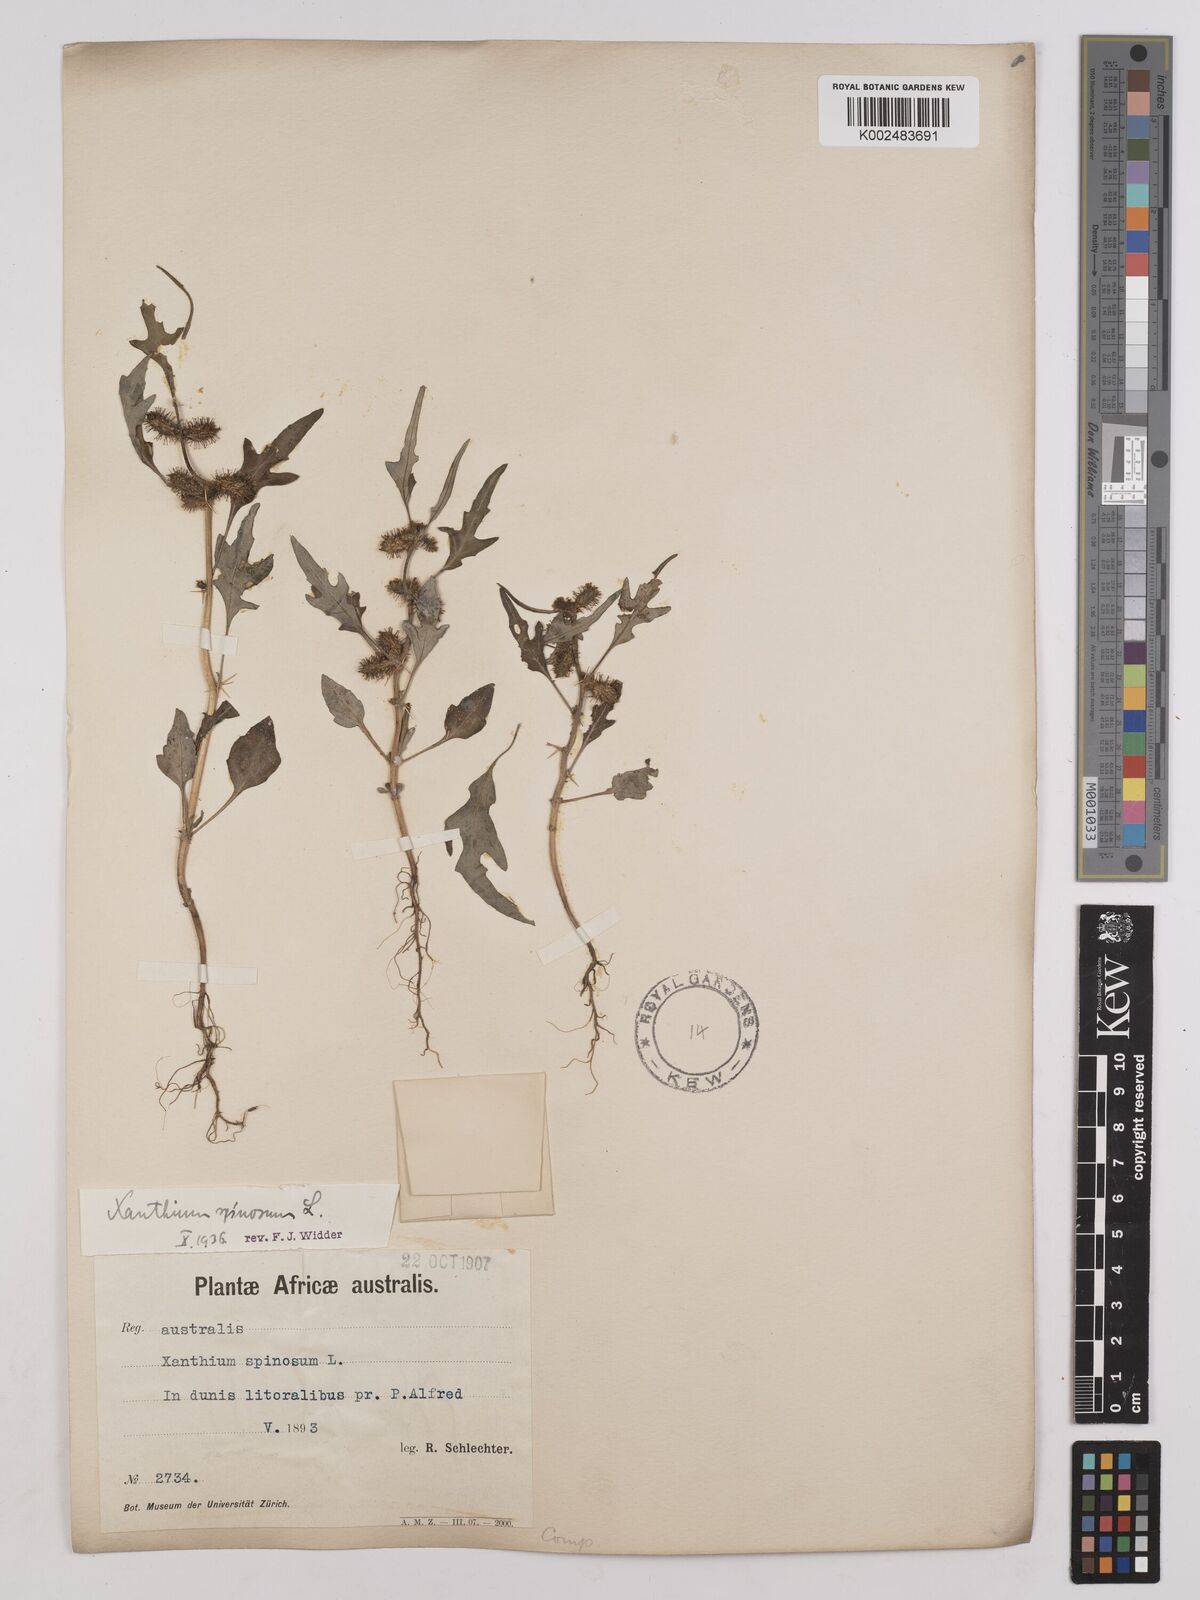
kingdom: Plantae
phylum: Tracheophyta
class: Magnoliopsida
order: Asterales
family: Asteraceae
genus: Xanthium
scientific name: Xanthium spinosum
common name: Spiny cocklebur
